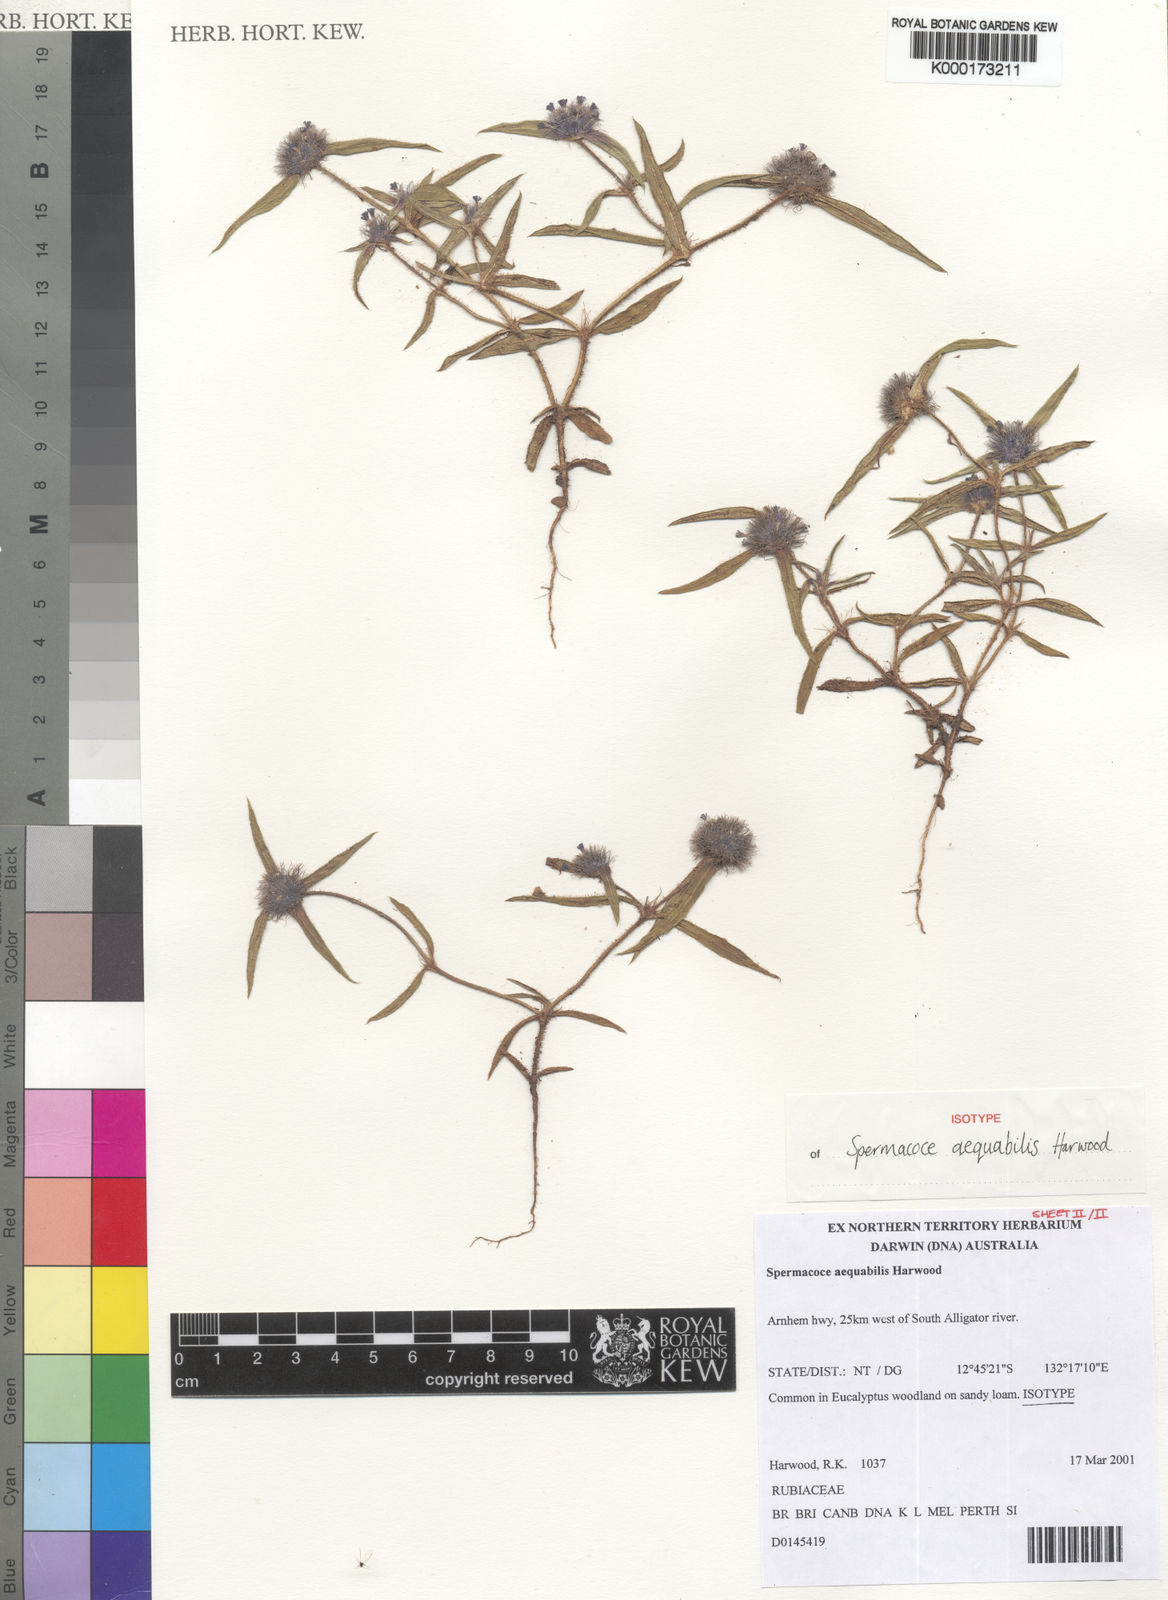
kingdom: Plantae
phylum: Tracheophyta
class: Magnoliopsida
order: Gentianales
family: Rubiaceae
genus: Spermacoce
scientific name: Spermacoce aequabilis
